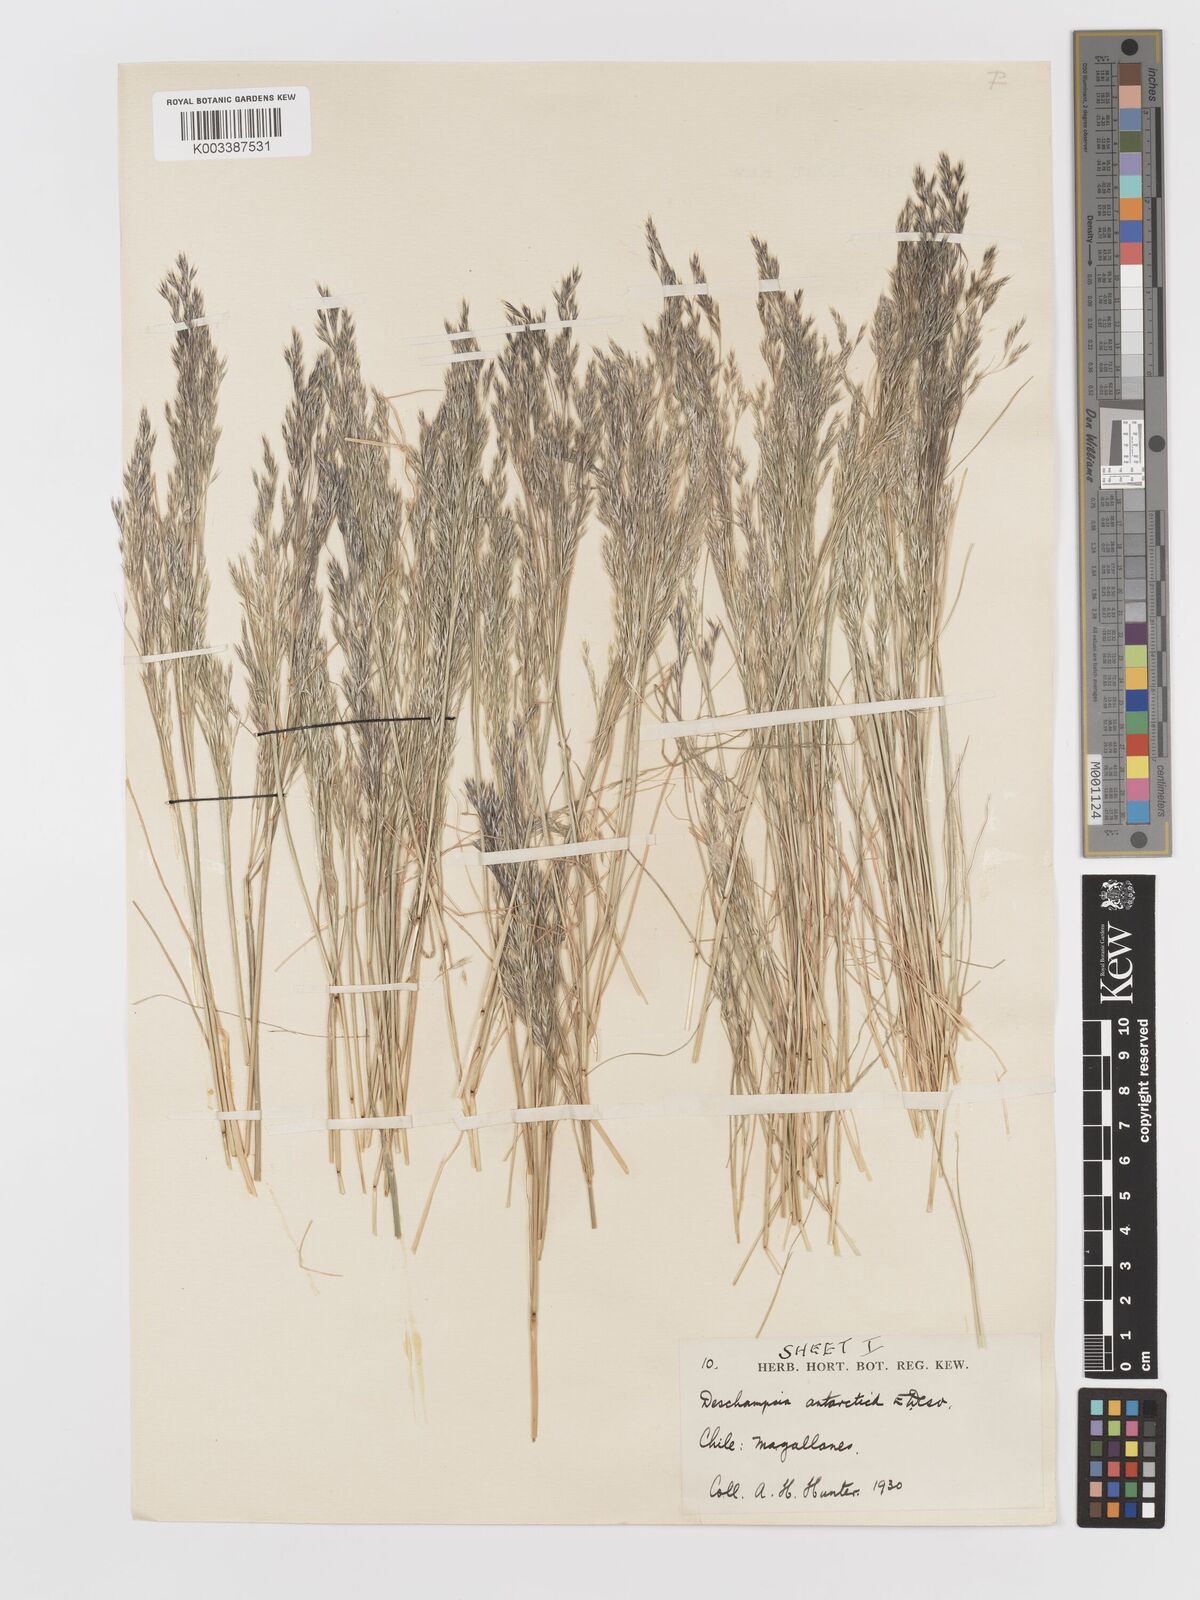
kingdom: Plantae
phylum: Tracheophyta
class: Liliopsida
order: Poales
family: Poaceae
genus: Deschampsia
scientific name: Deschampsia antarctica
